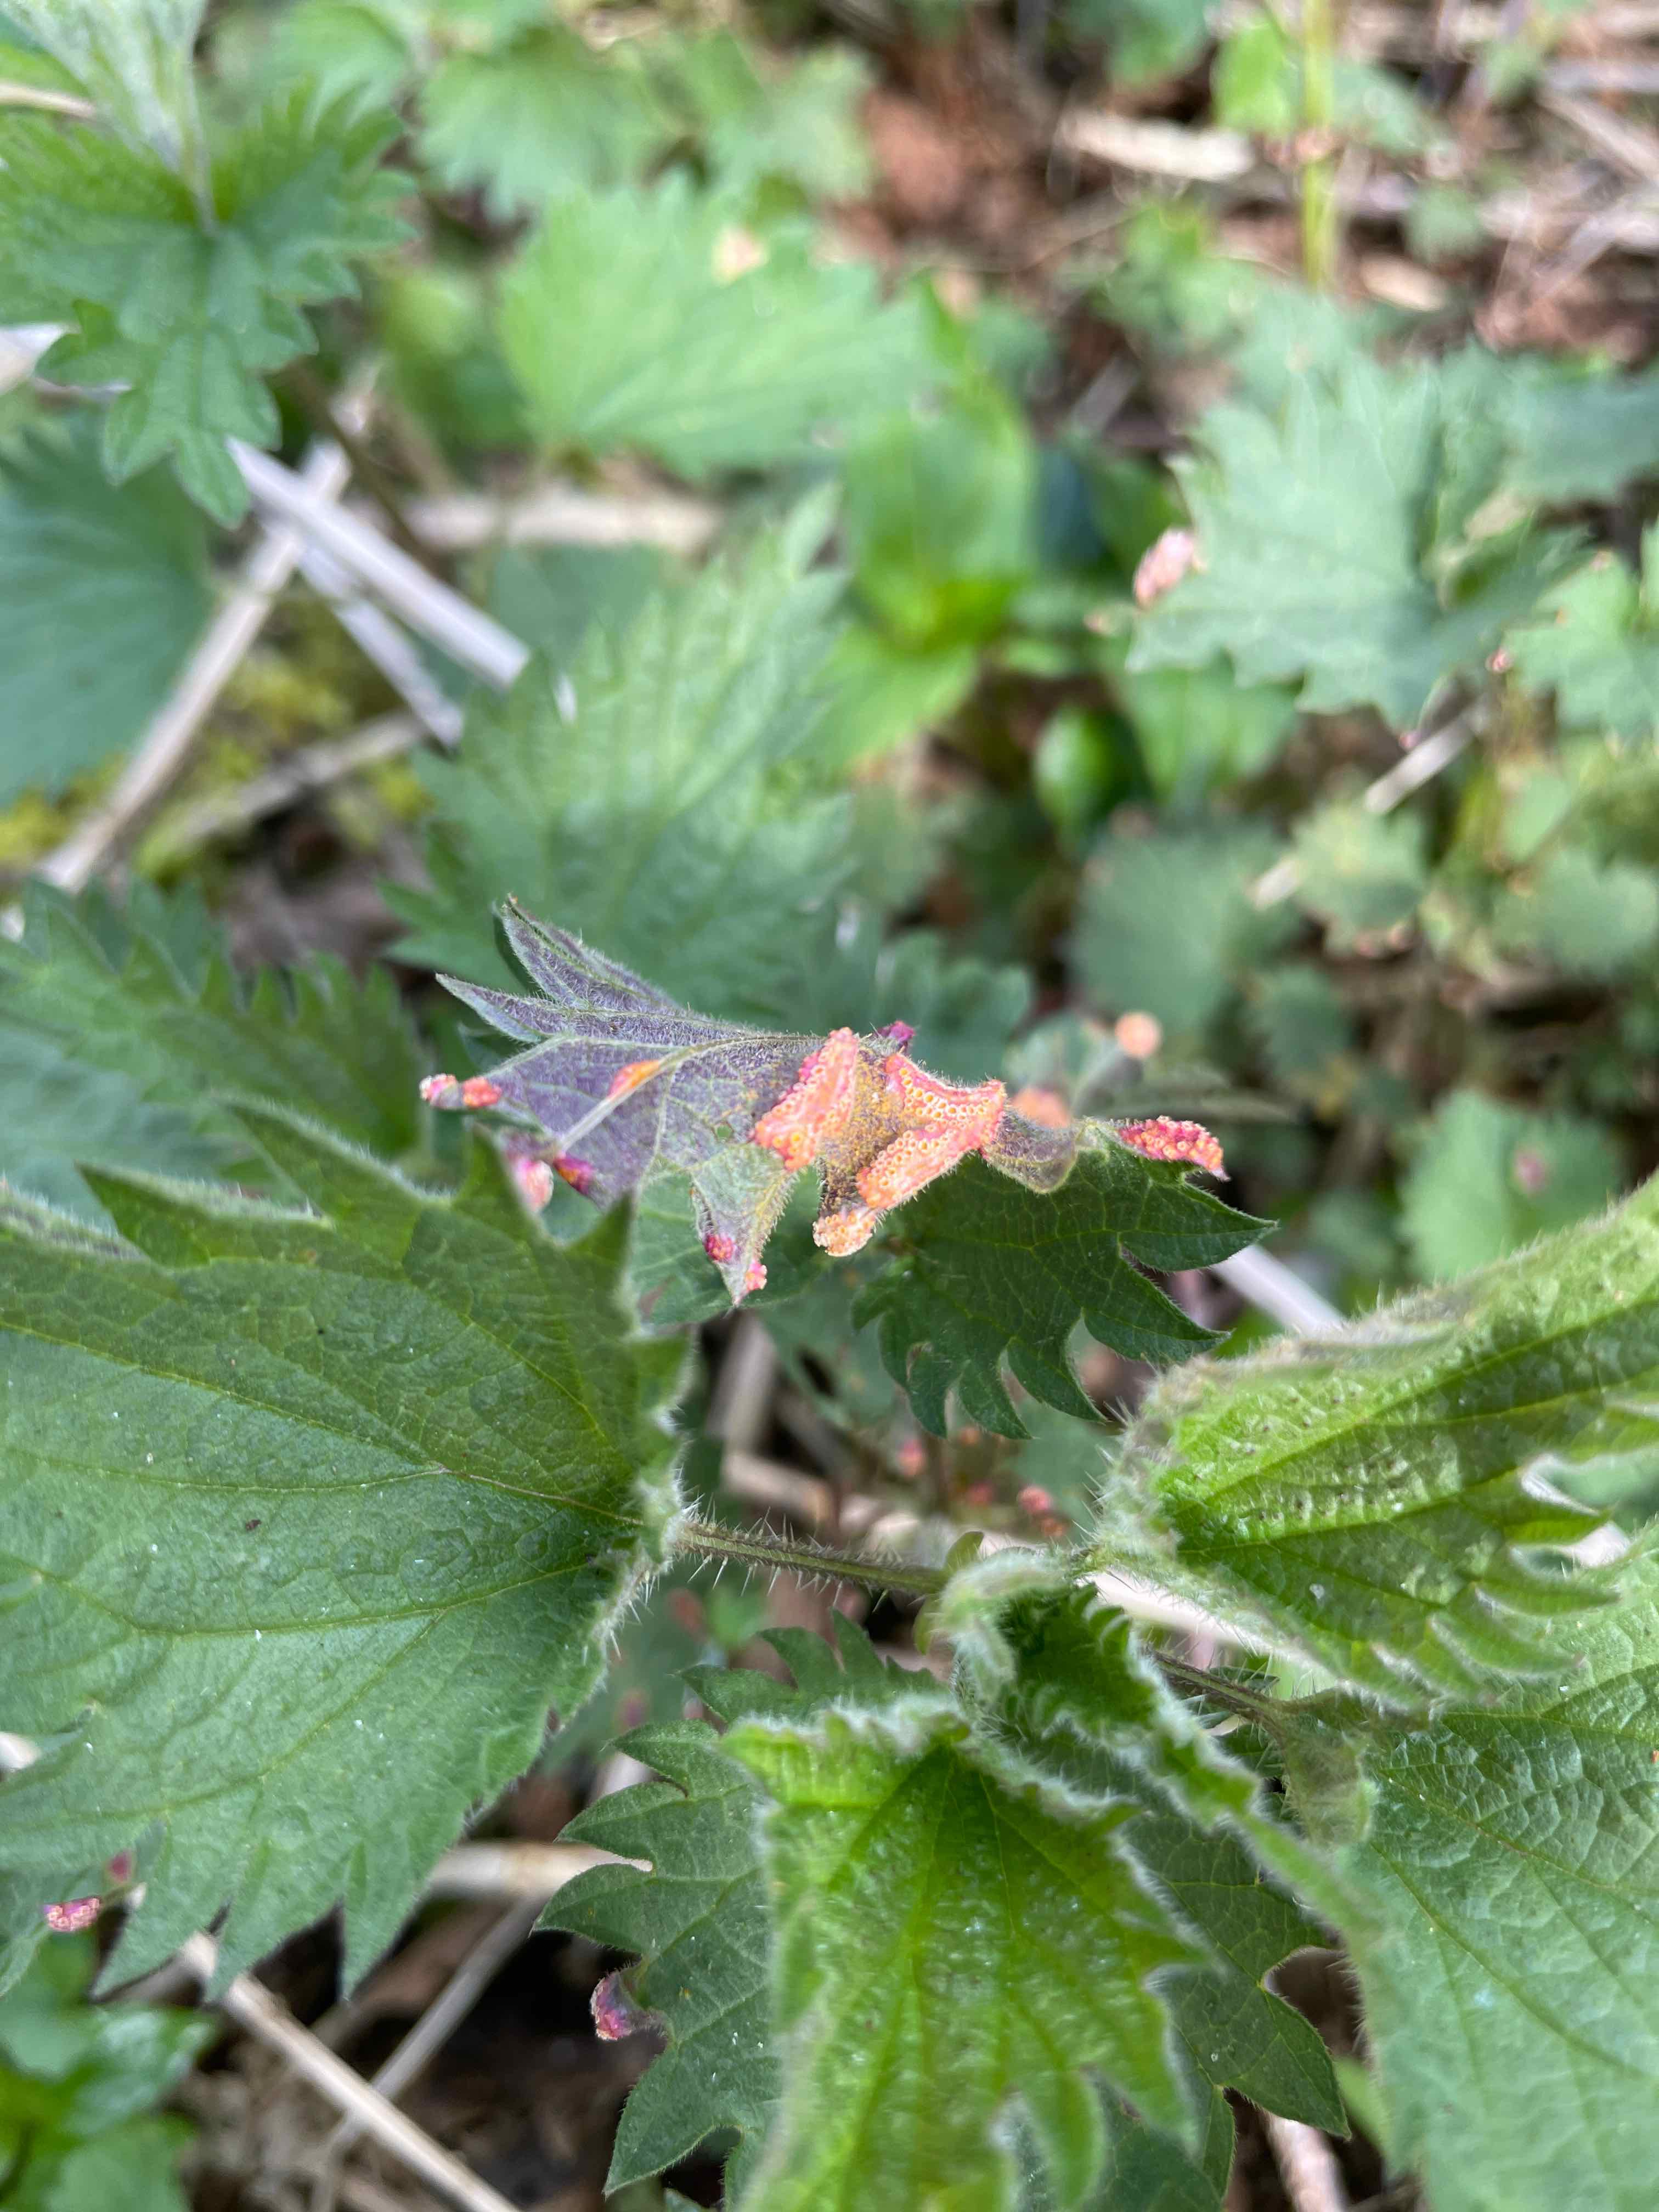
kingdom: Fungi
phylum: Basidiomycota
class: Pucciniomycetes
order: Pucciniales
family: Pucciniaceae
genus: Puccinia
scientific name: Puccinia urticata
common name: nældegalle-tvecellerust
